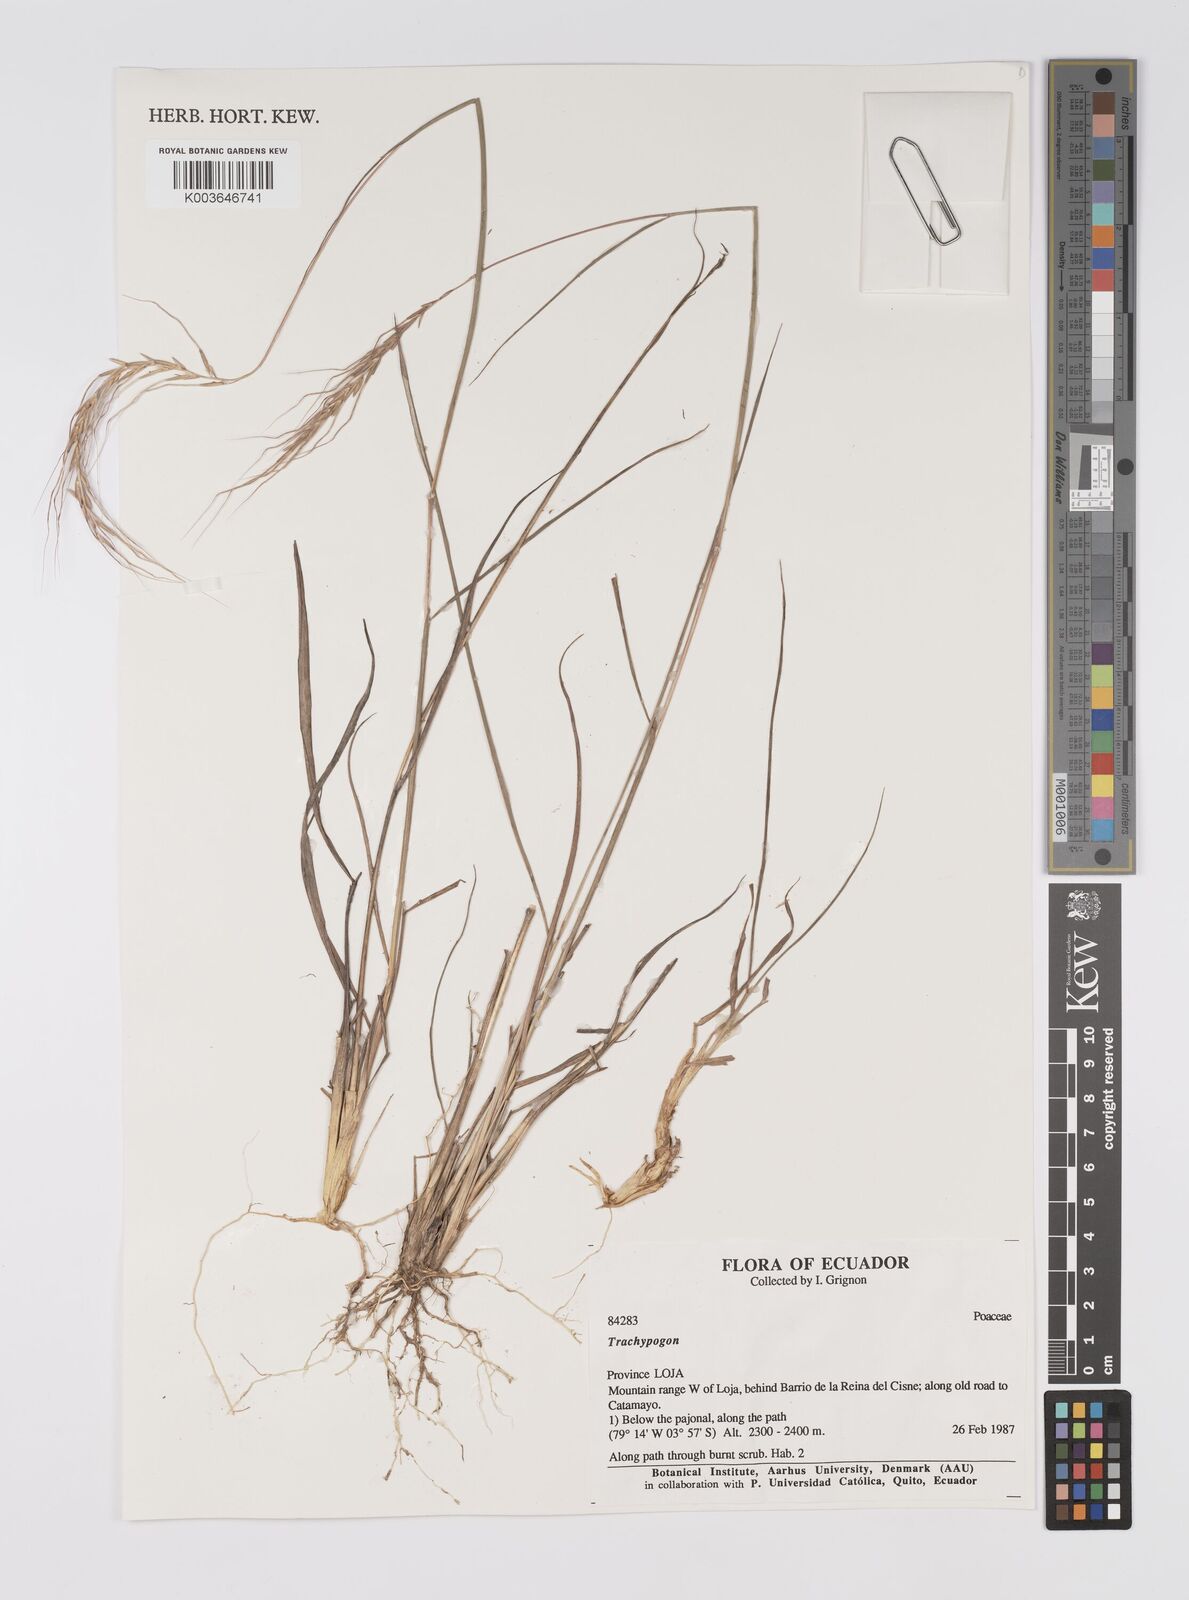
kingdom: Plantae
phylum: Tracheophyta
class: Liliopsida
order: Poales
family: Poaceae
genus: Trachypogon
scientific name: Trachypogon spicatus
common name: Crinkle-awn
